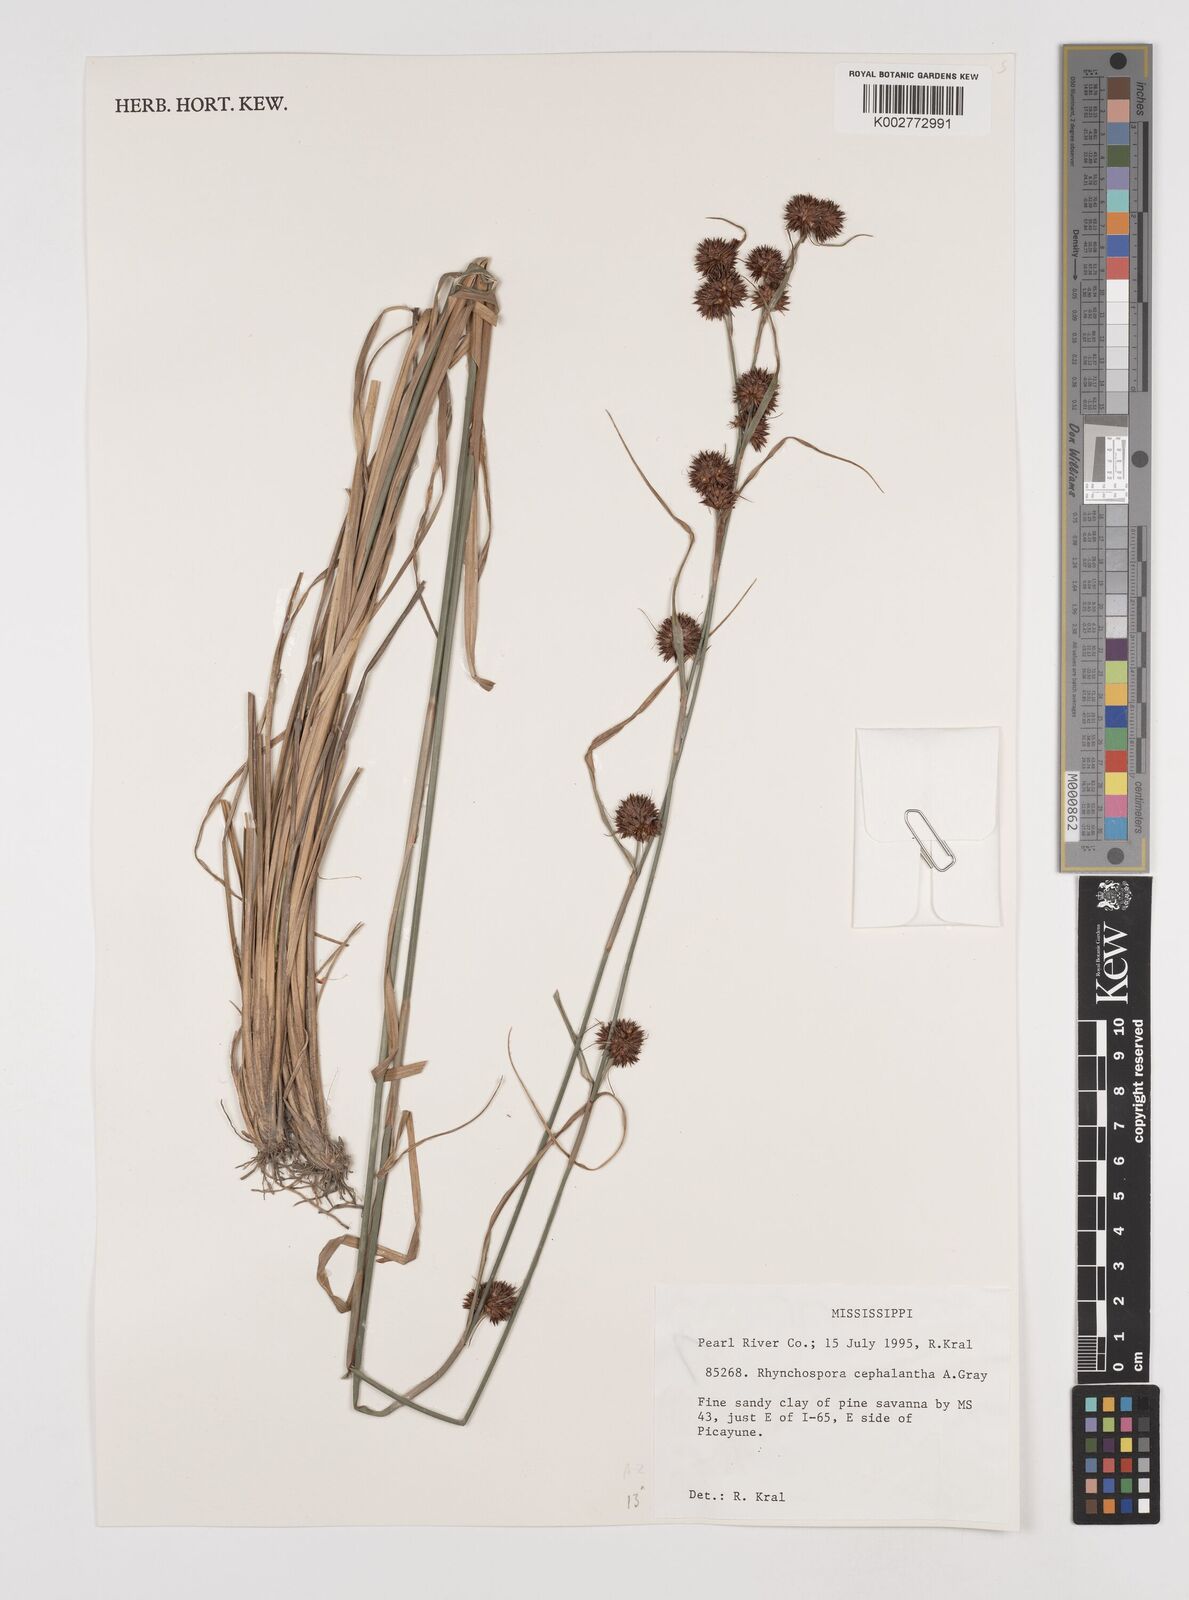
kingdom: Plantae
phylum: Tracheophyta
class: Liliopsida
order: Poales
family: Cyperaceae
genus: Rhynchospora
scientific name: Rhynchospora cephalantha
